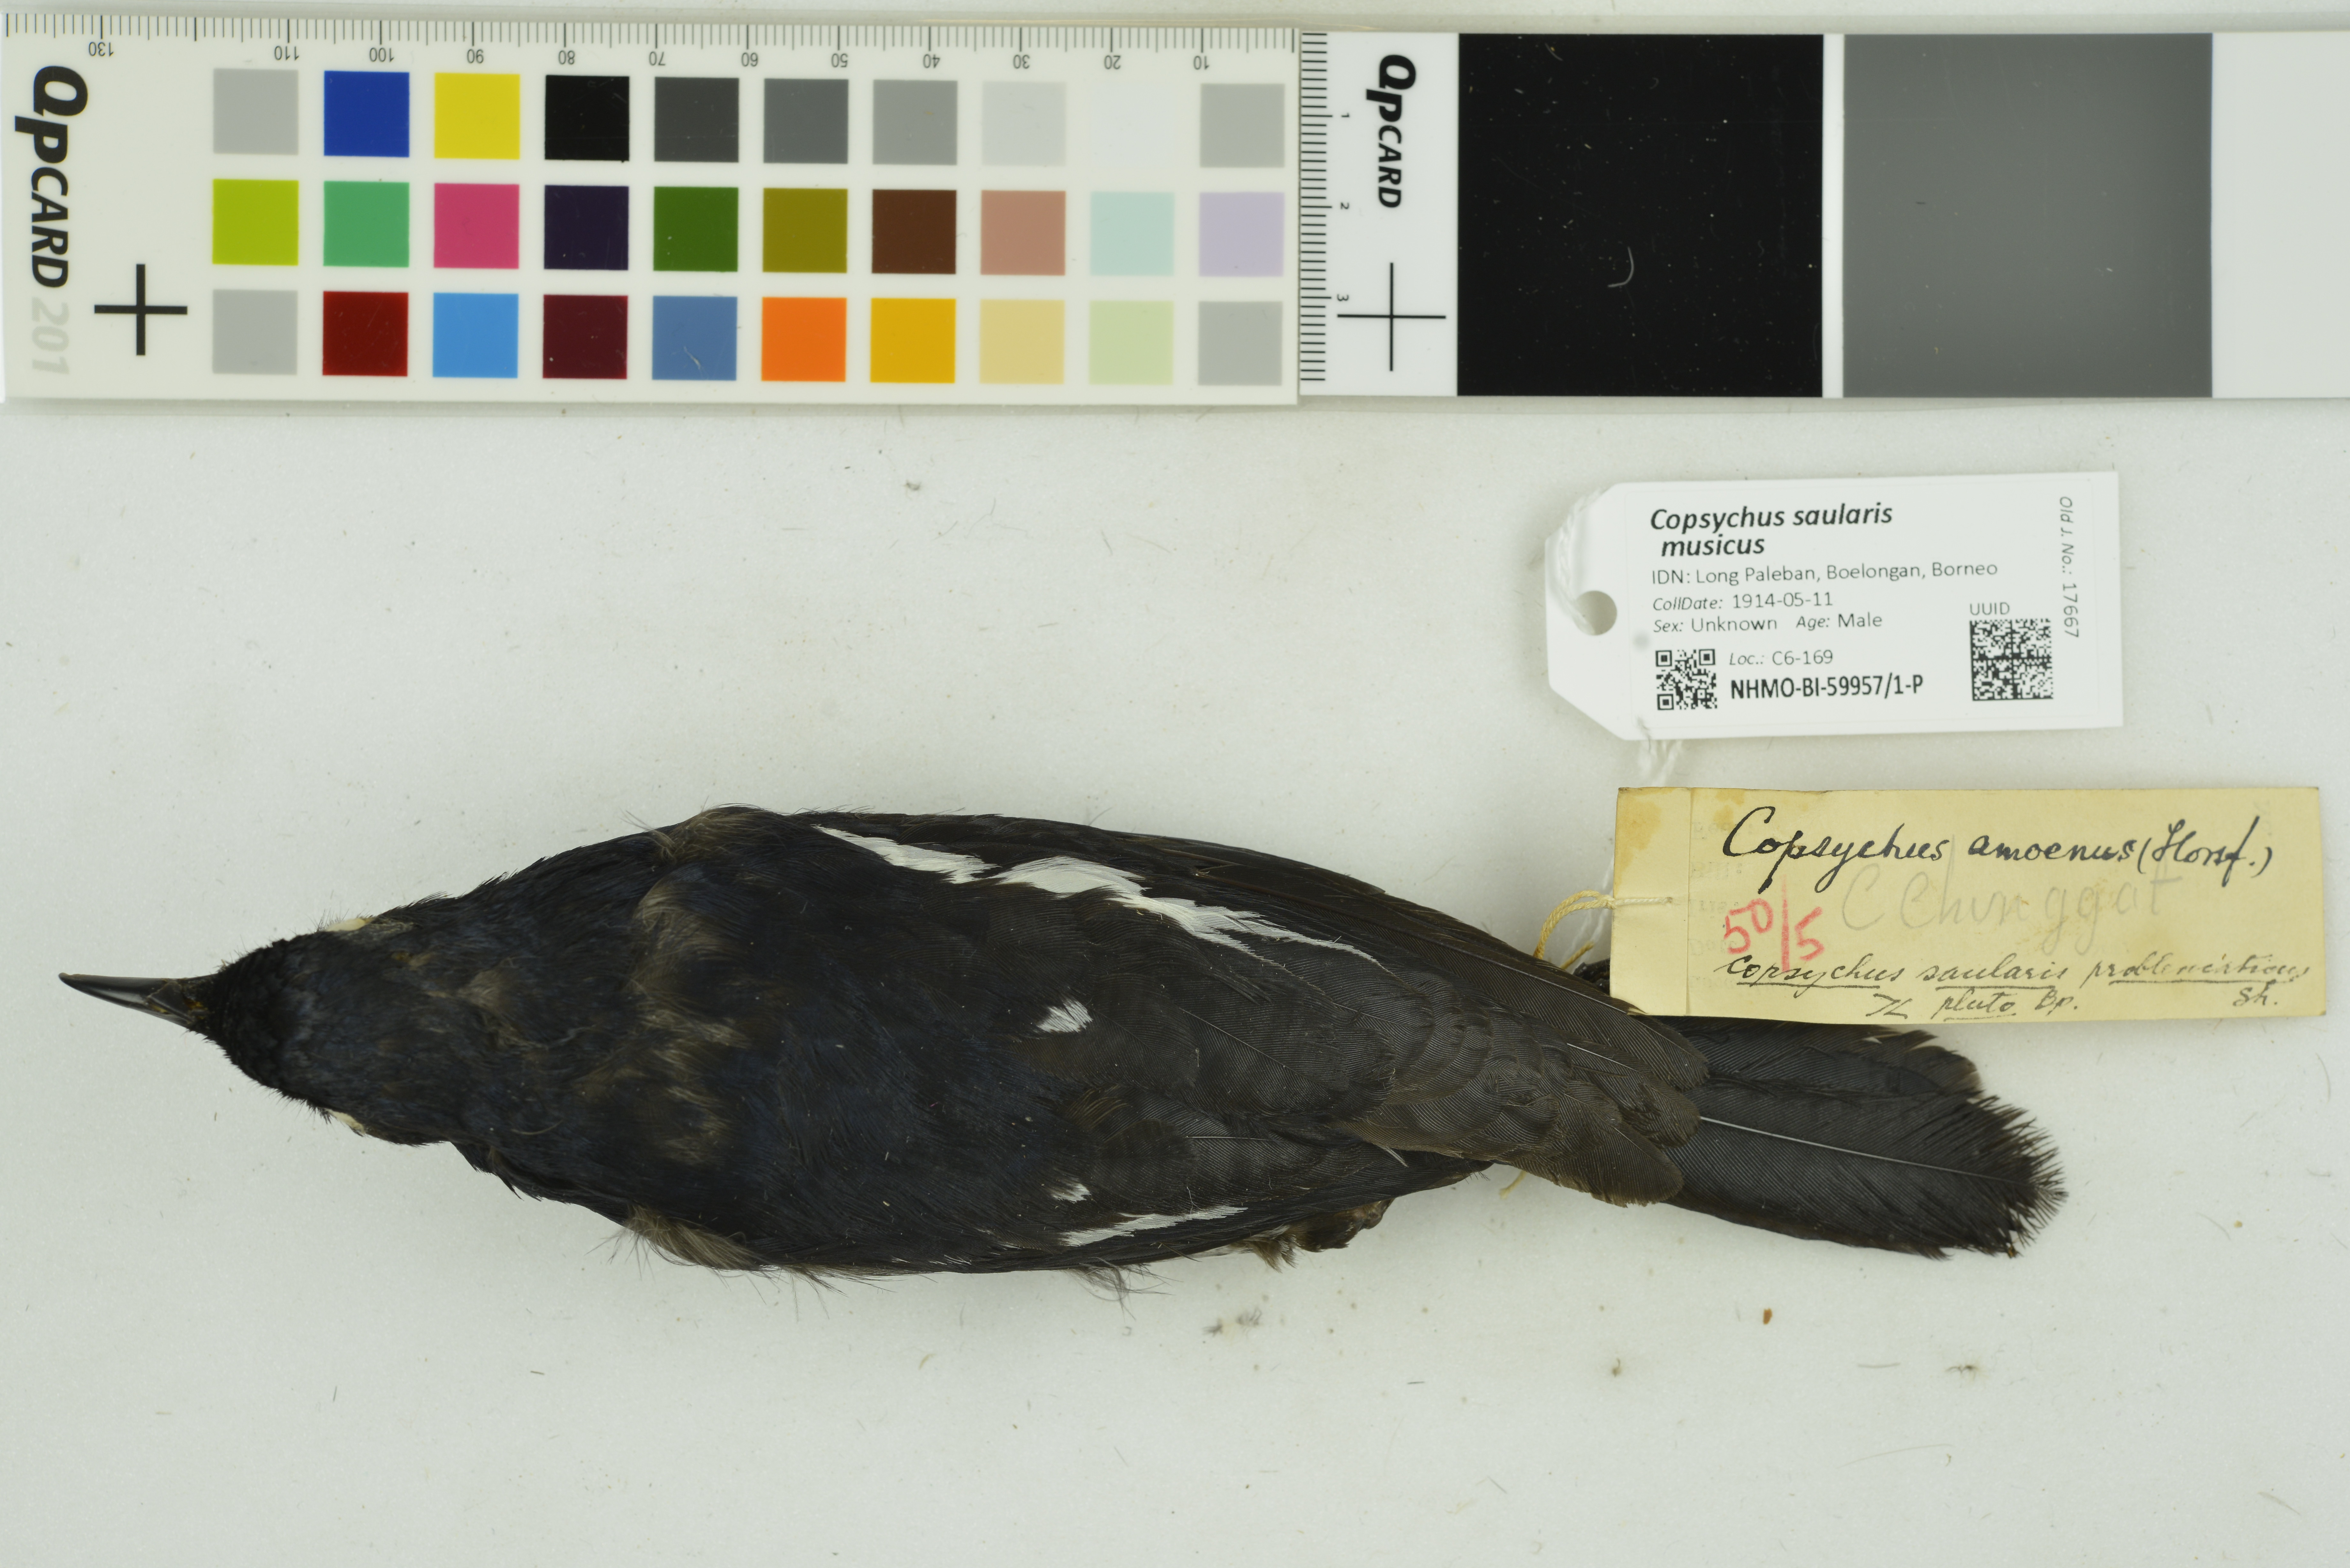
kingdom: Animalia
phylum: Chordata
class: Aves
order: Passeriformes
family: Muscicapidae
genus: Copsychus
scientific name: Copsychus saularis
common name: Oriental magpie-robin
